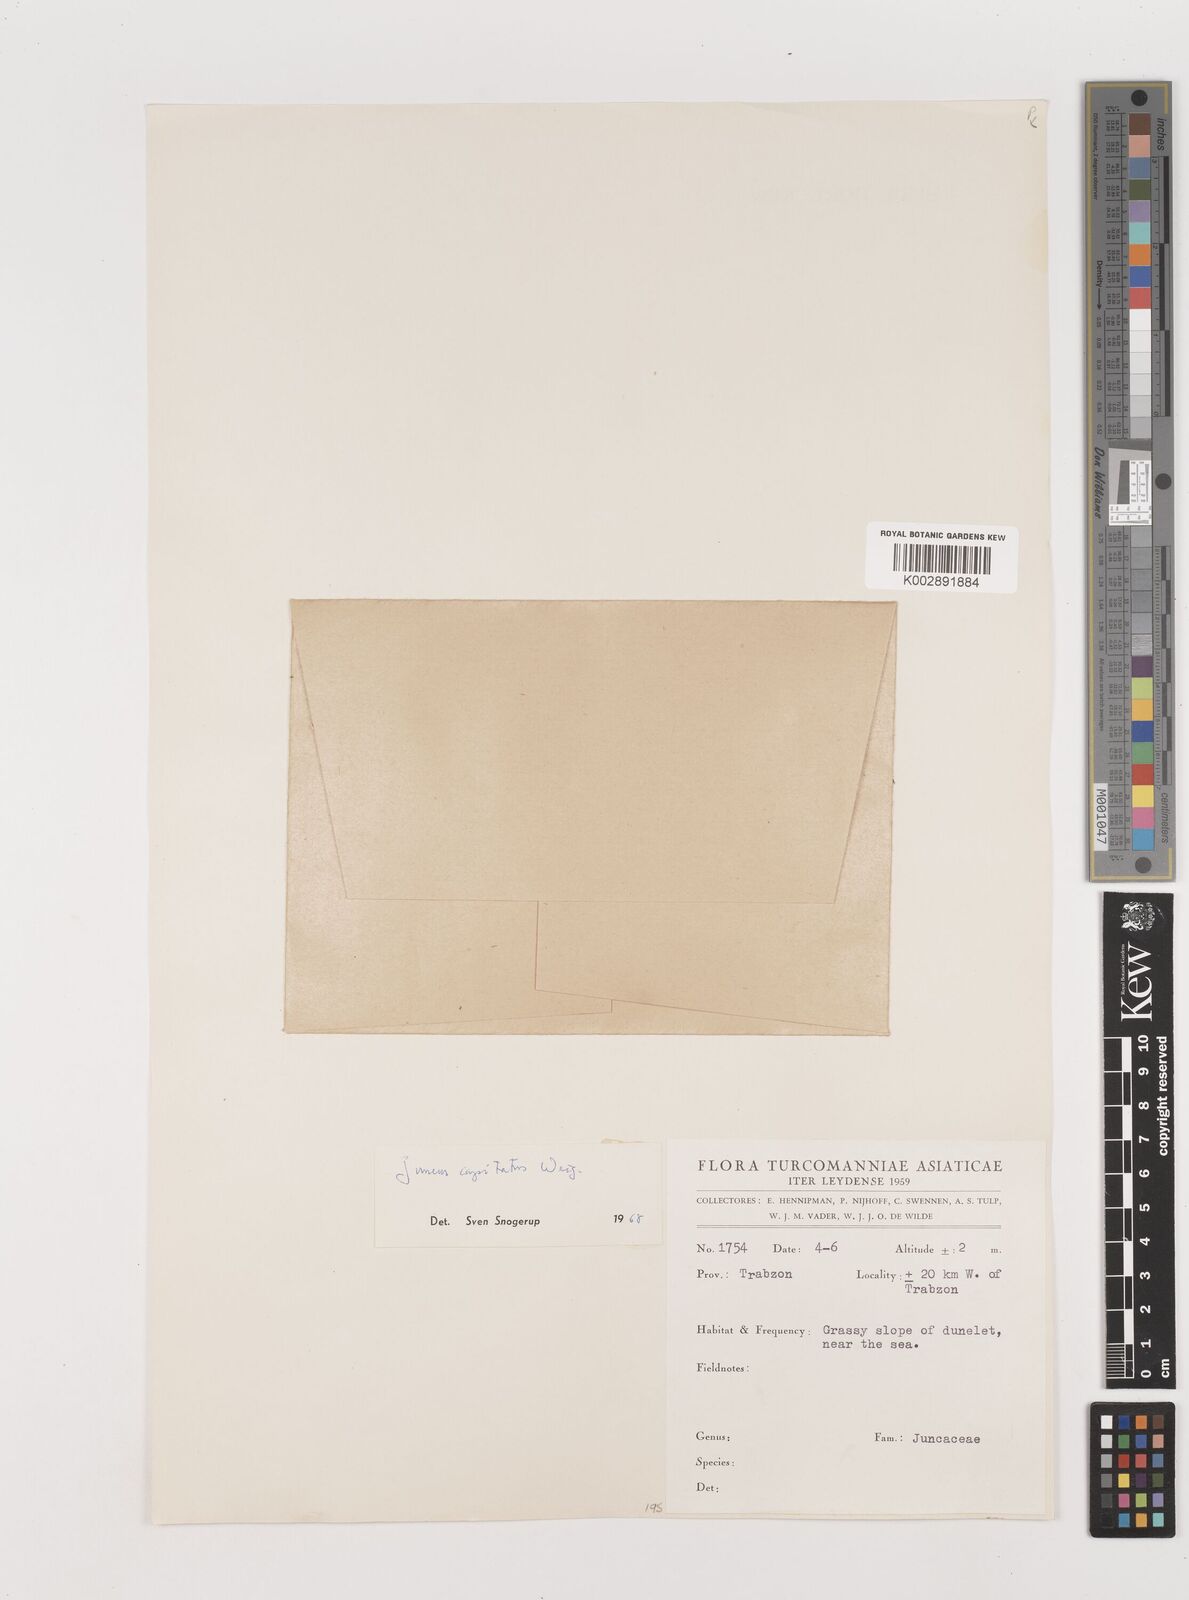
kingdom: Plantae
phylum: Tracheophyta
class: Liliopsida
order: Poales
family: Juncaceae
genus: Juncus
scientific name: Juncus capitatus
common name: Dwarf rush
